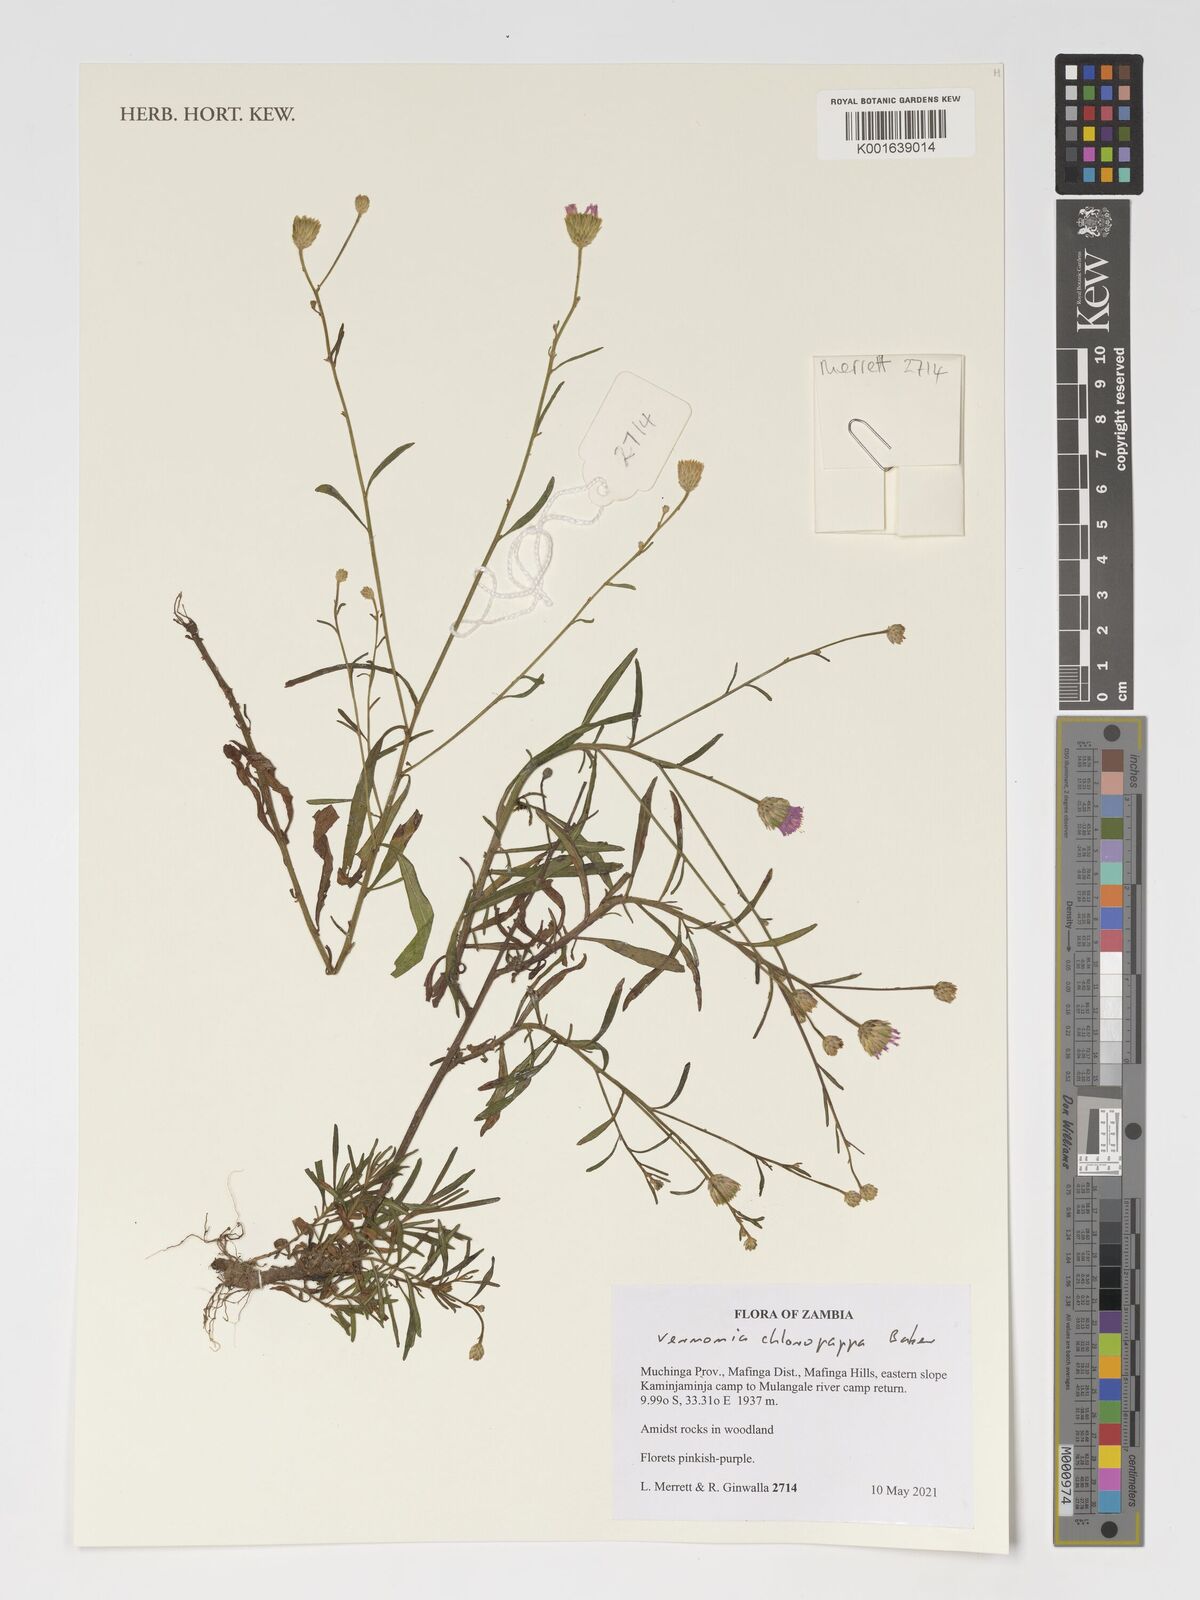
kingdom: Plantae
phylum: Tracheophyta
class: Magnoliopsida
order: Asterales
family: Asteraceae
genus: Crystallopollen
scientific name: Crystallopollen chloropappum
